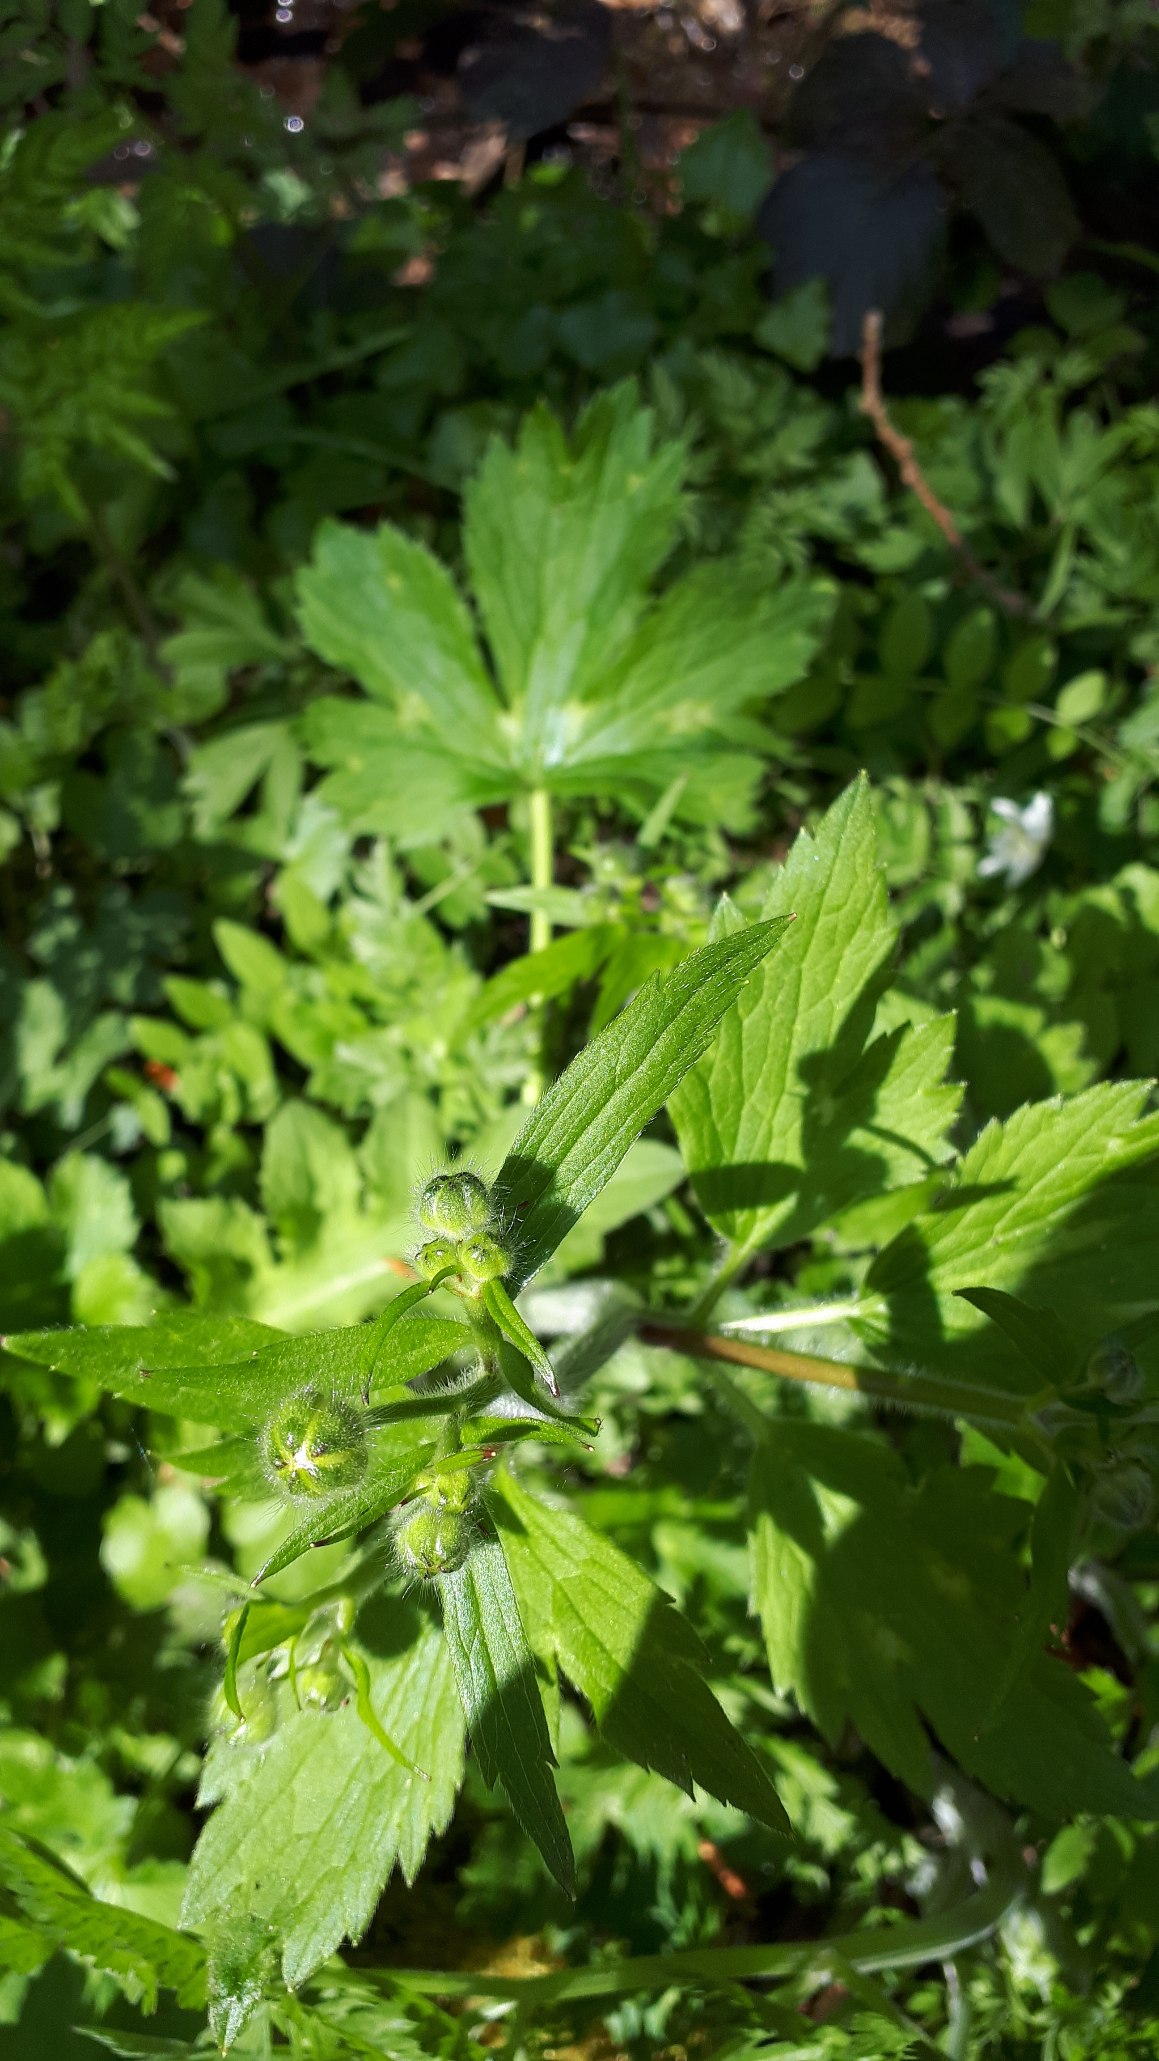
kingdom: Plantae
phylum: Tracheophyta
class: Magnoliopsida
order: Ranunculales
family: Ranunculaceae
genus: Ranunculus
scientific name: Ranunculus lanuginosus
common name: Uldhåret ranunkel
